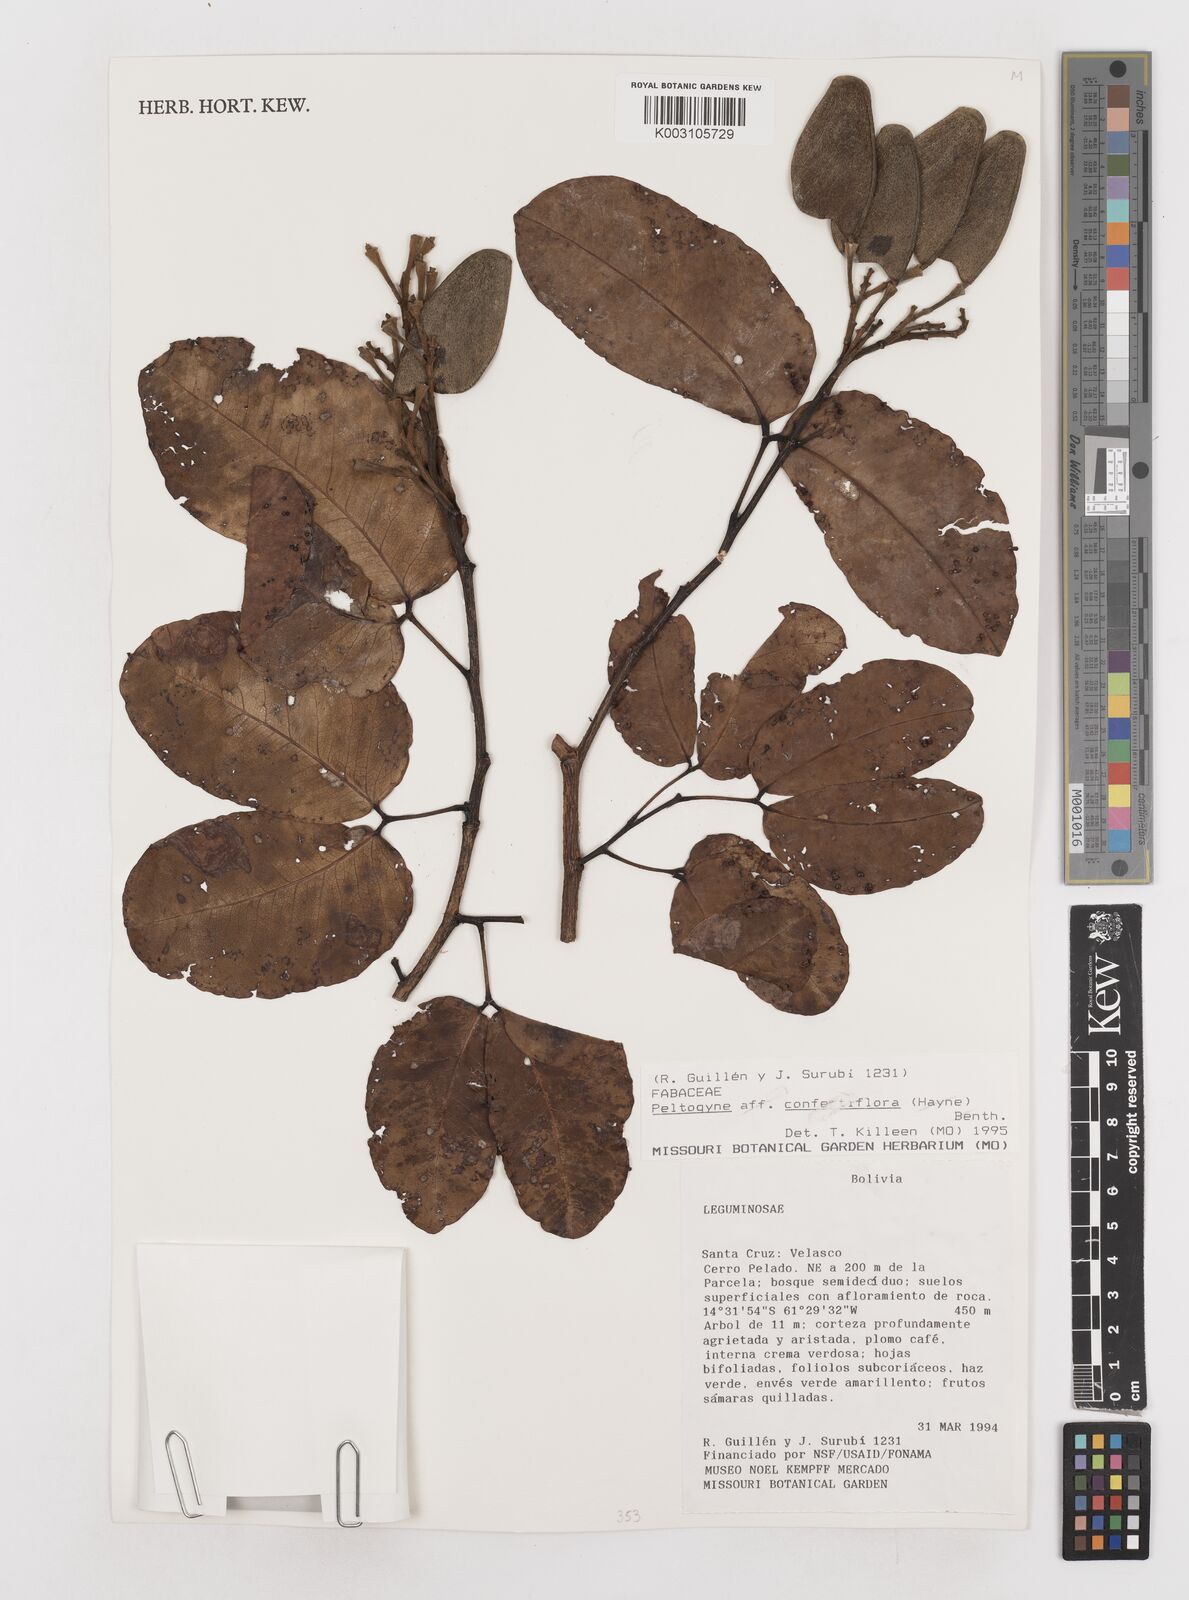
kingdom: Plantae
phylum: Tracheophyta
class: Magnoliopsida
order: Fabales
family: Fabaceae
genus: Peltogyne
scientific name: Peltogyne confertiflora
